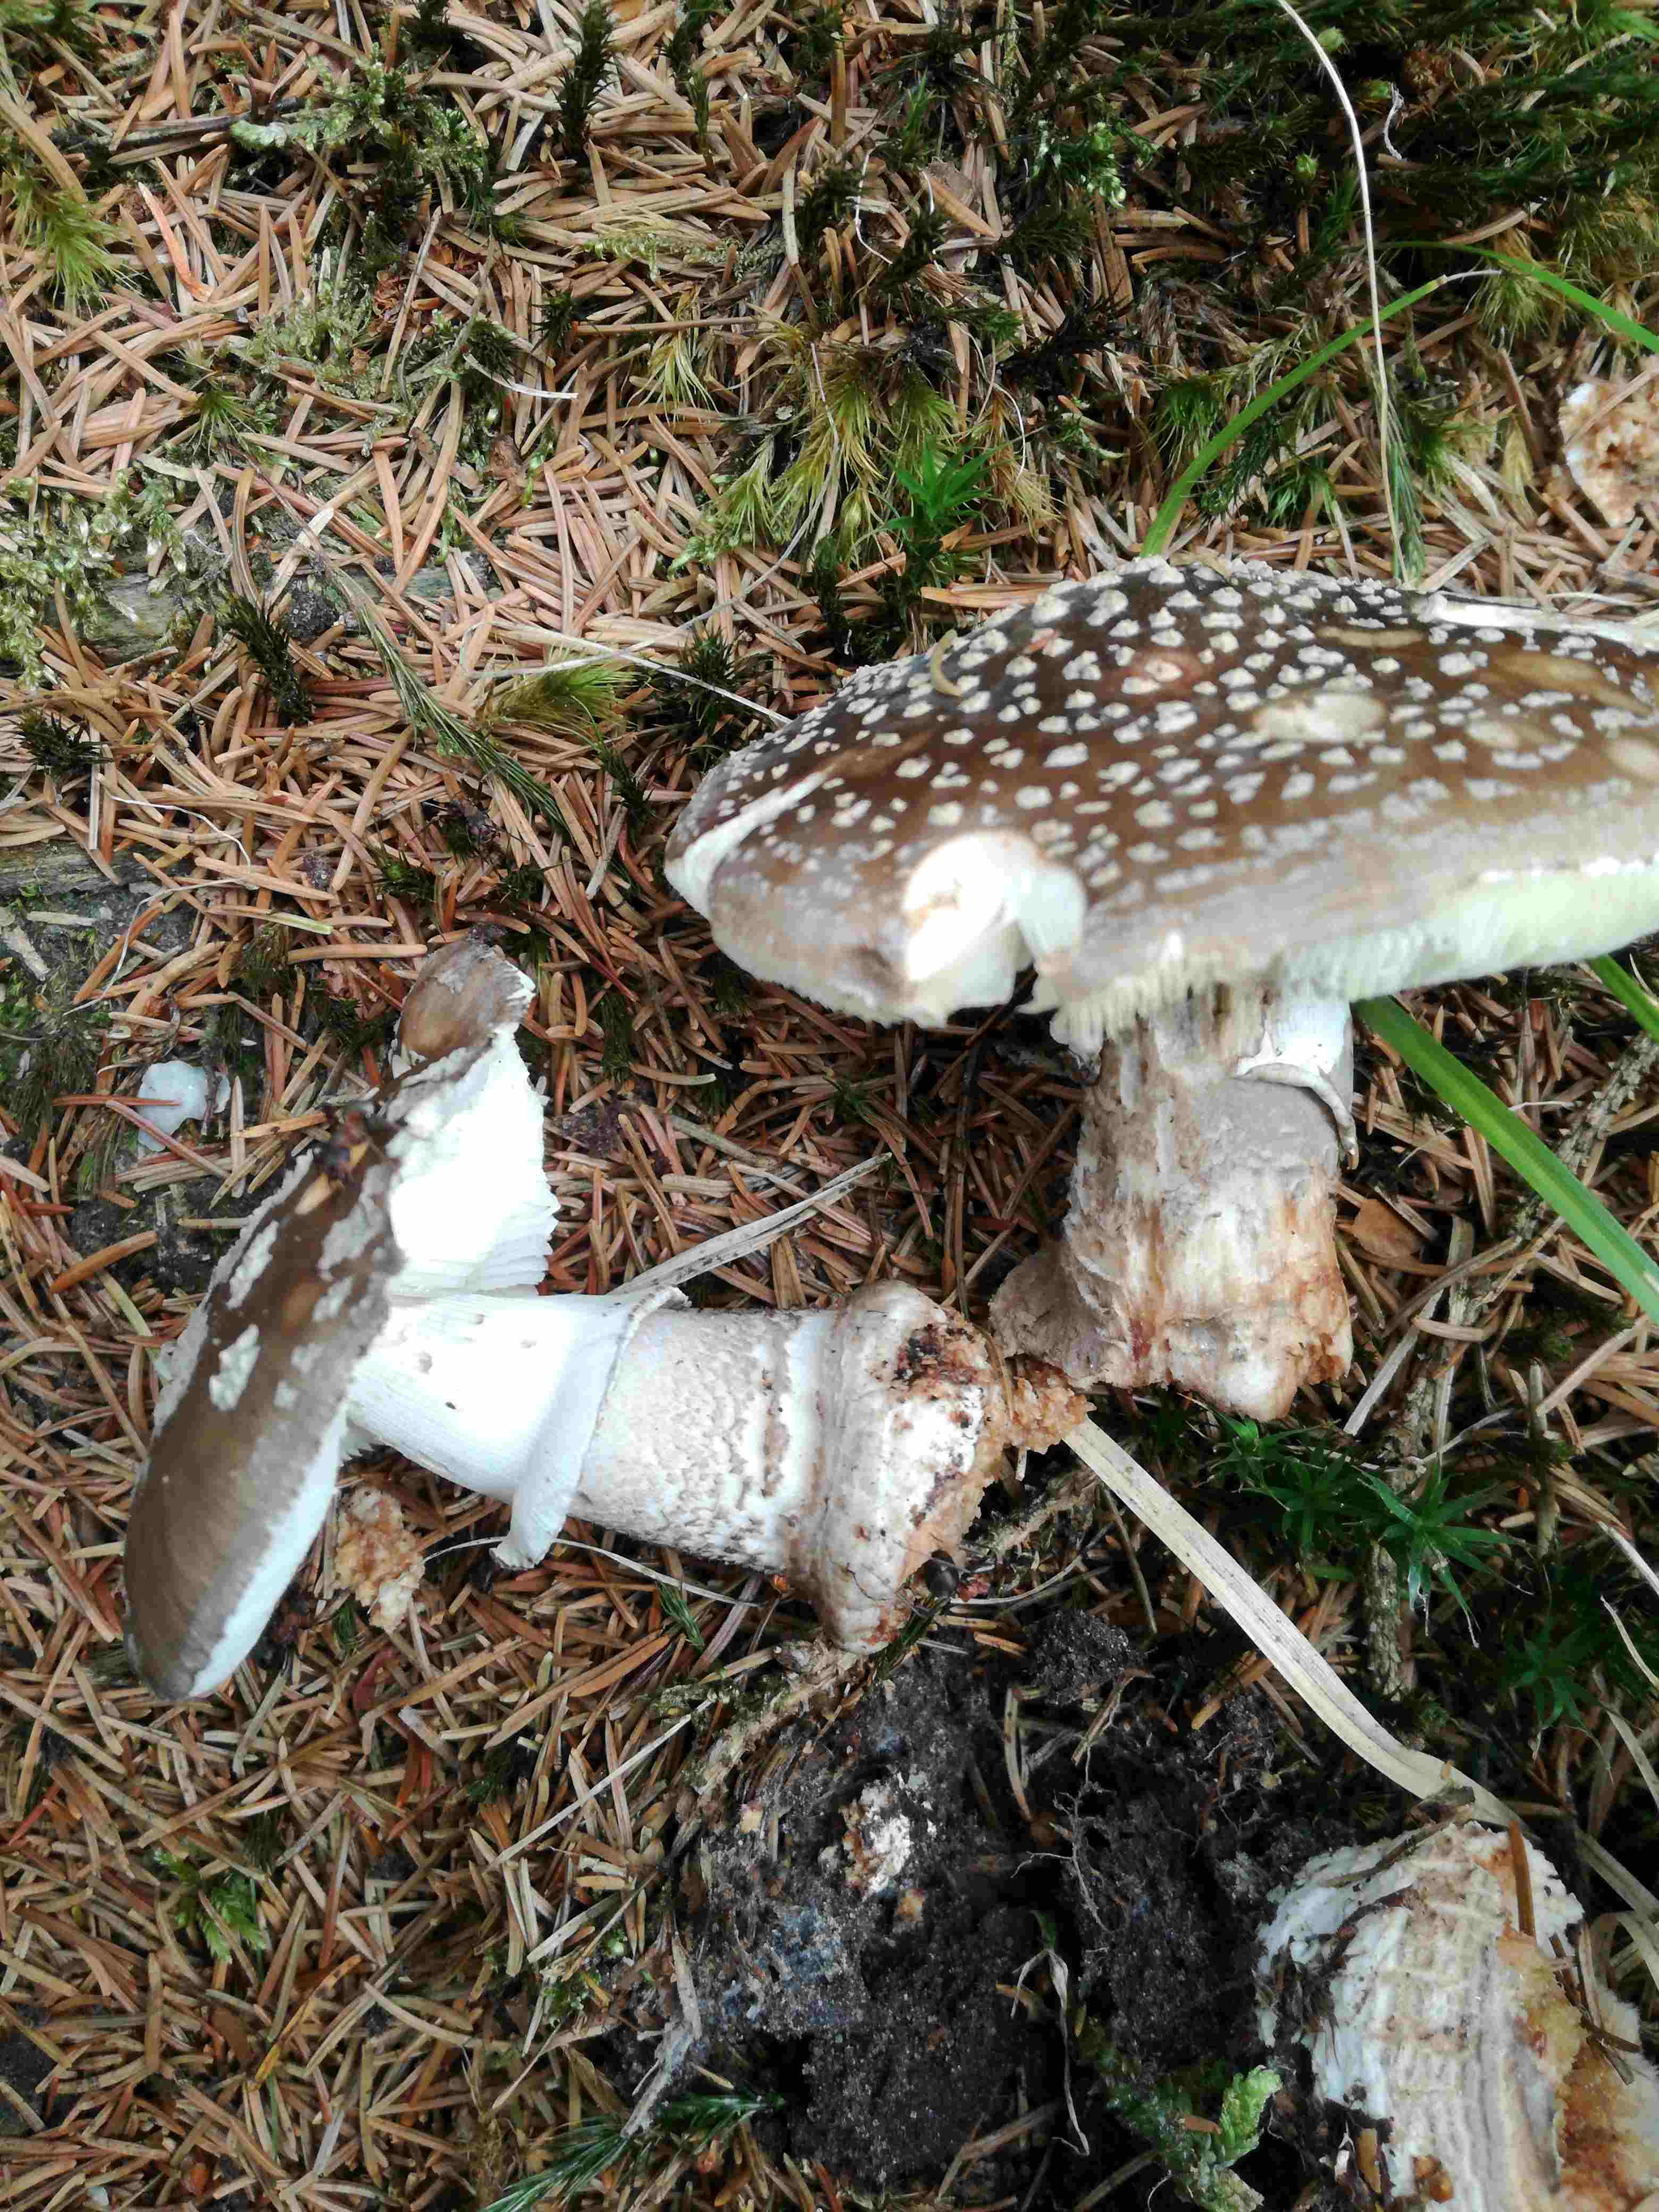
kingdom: Fungi
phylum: Basidiomycota
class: Agaricomycetes
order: Agaricales
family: Amanitaceae
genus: Amanita
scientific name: Amanita
